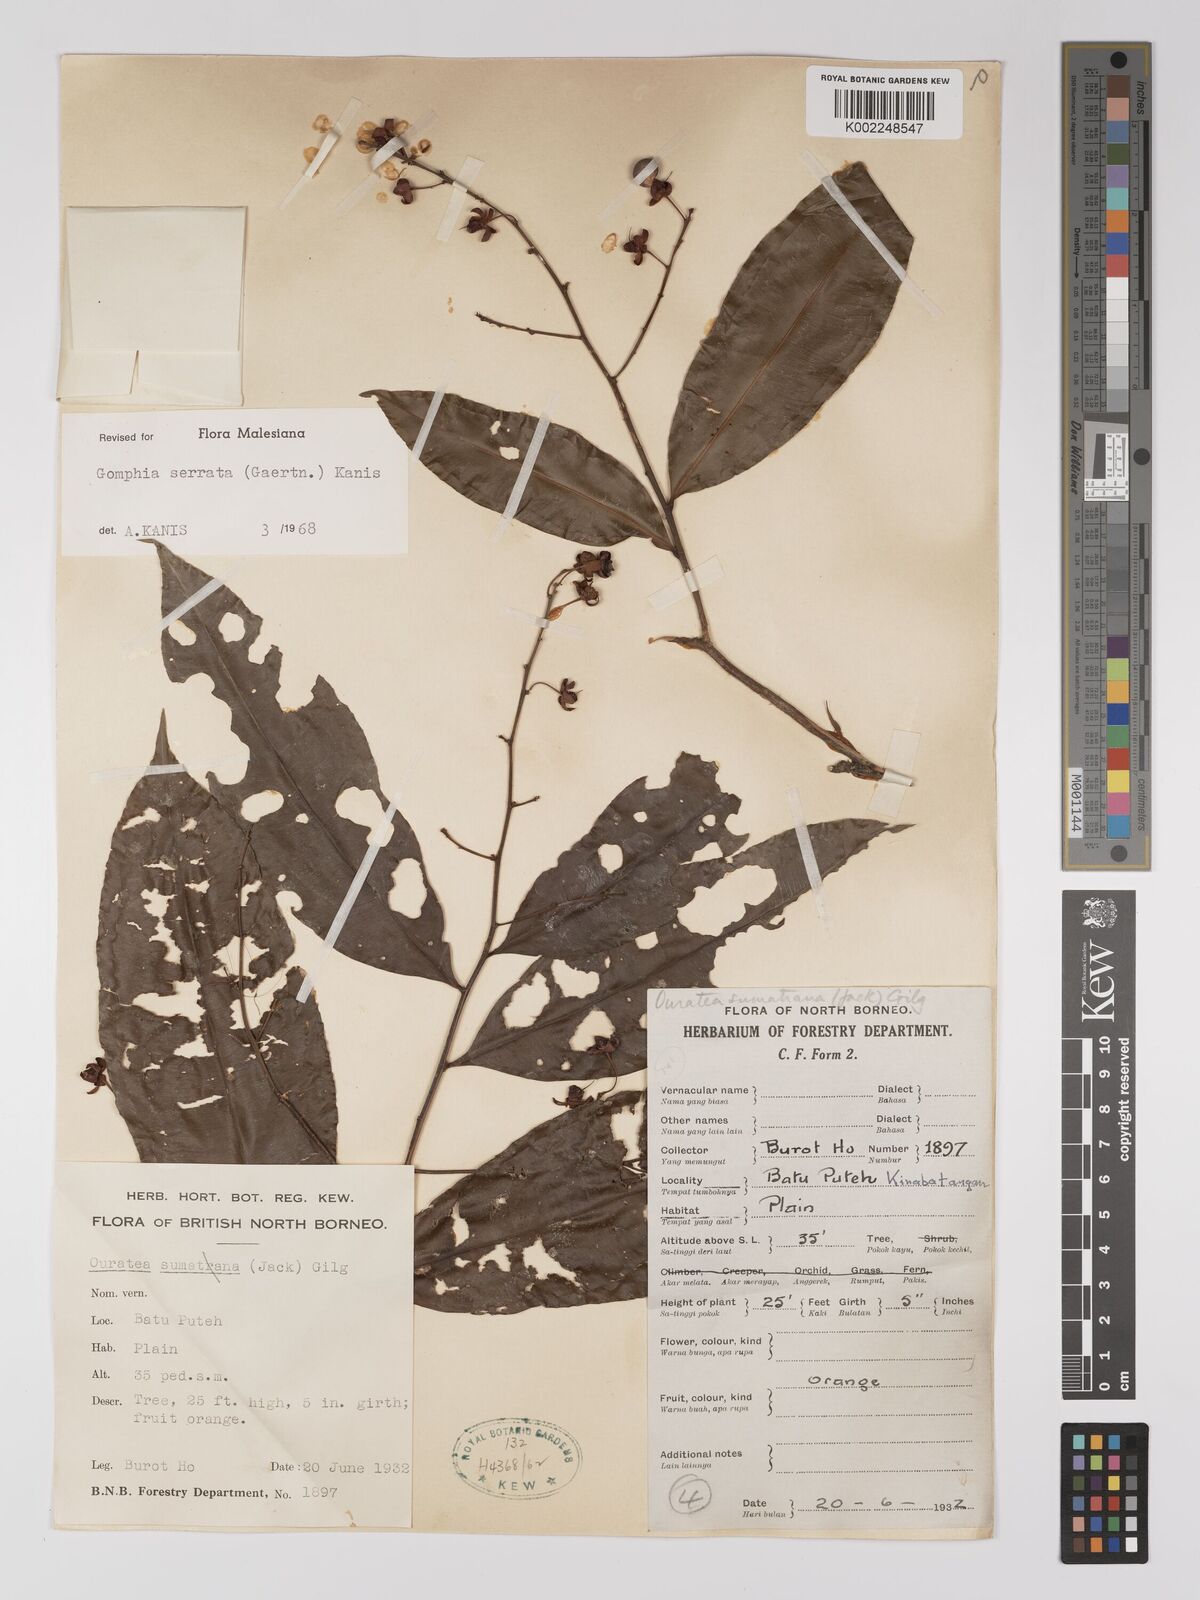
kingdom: Plantae
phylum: Tracheophyta
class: Magnoliopsida
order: Malpighiales
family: Ochnaceae
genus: Gomphia
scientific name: Gomphia serrata
